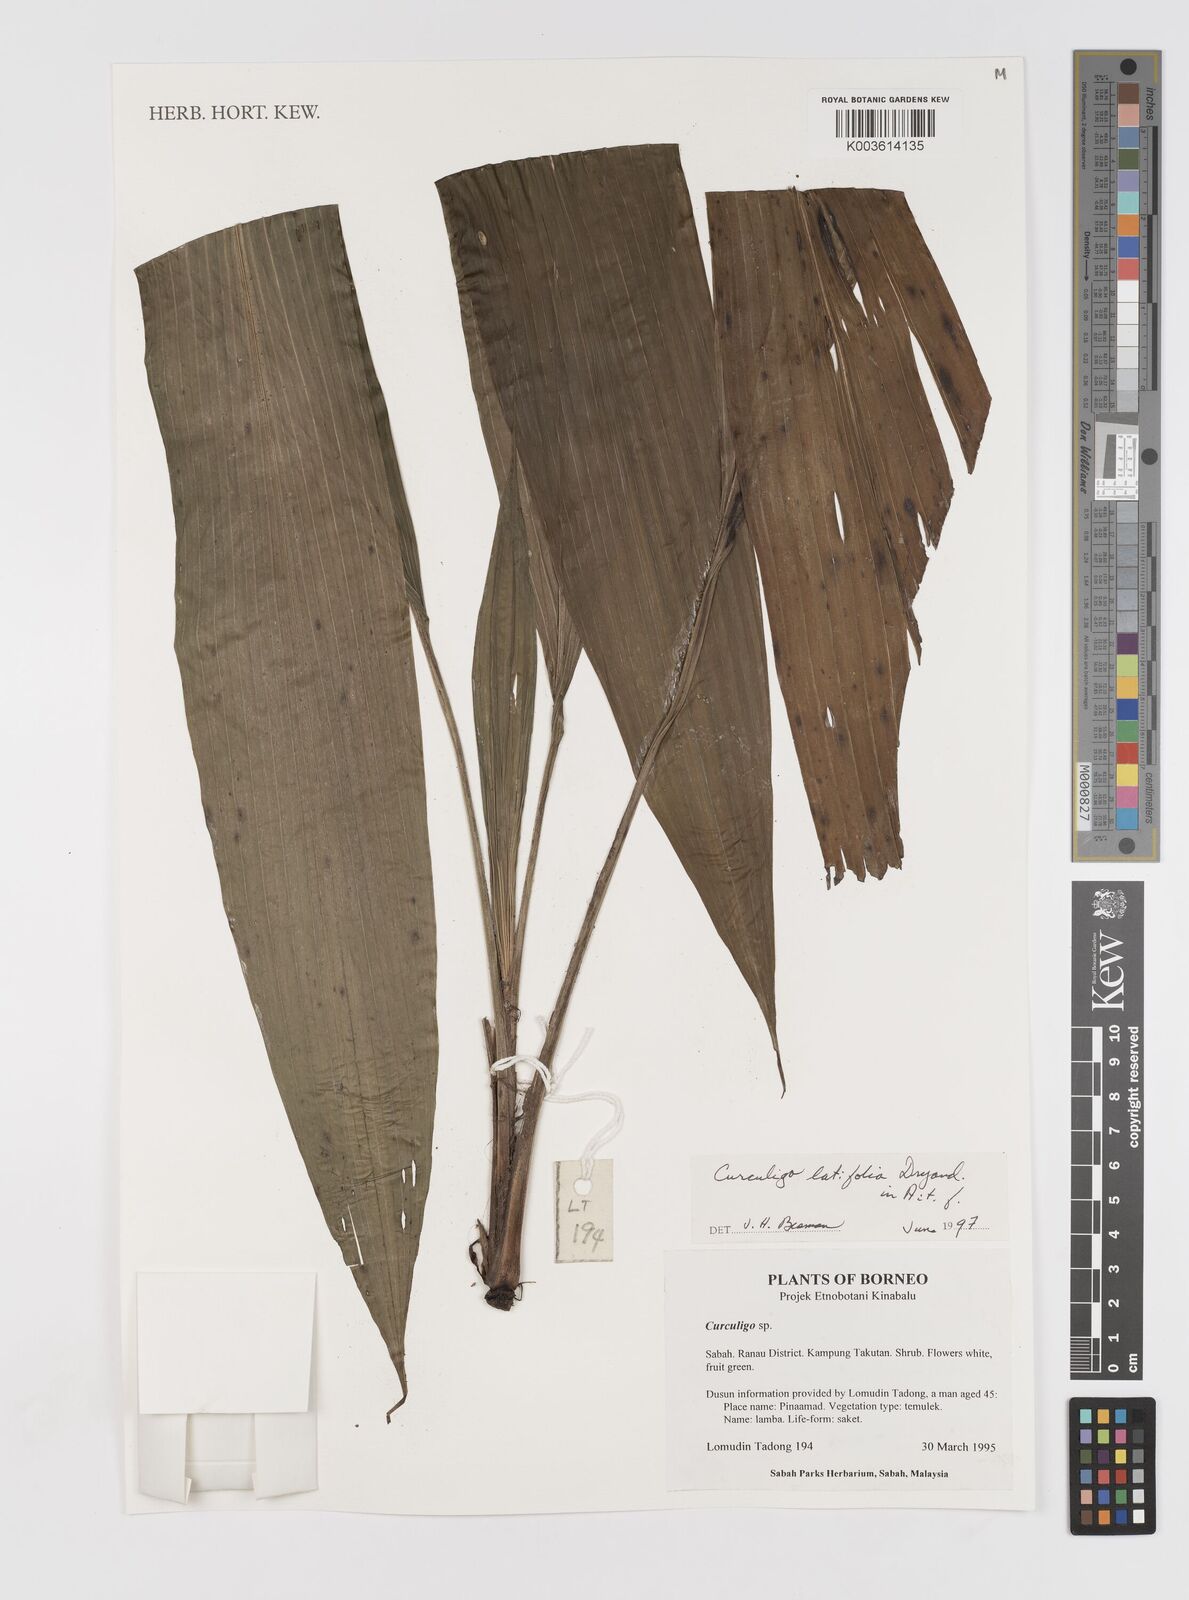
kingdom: Plantae
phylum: Tracheophyta
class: Liliopsida
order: Asparagales
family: Hypoxidaceae
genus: Curculigo
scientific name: Curculigo latifolia
